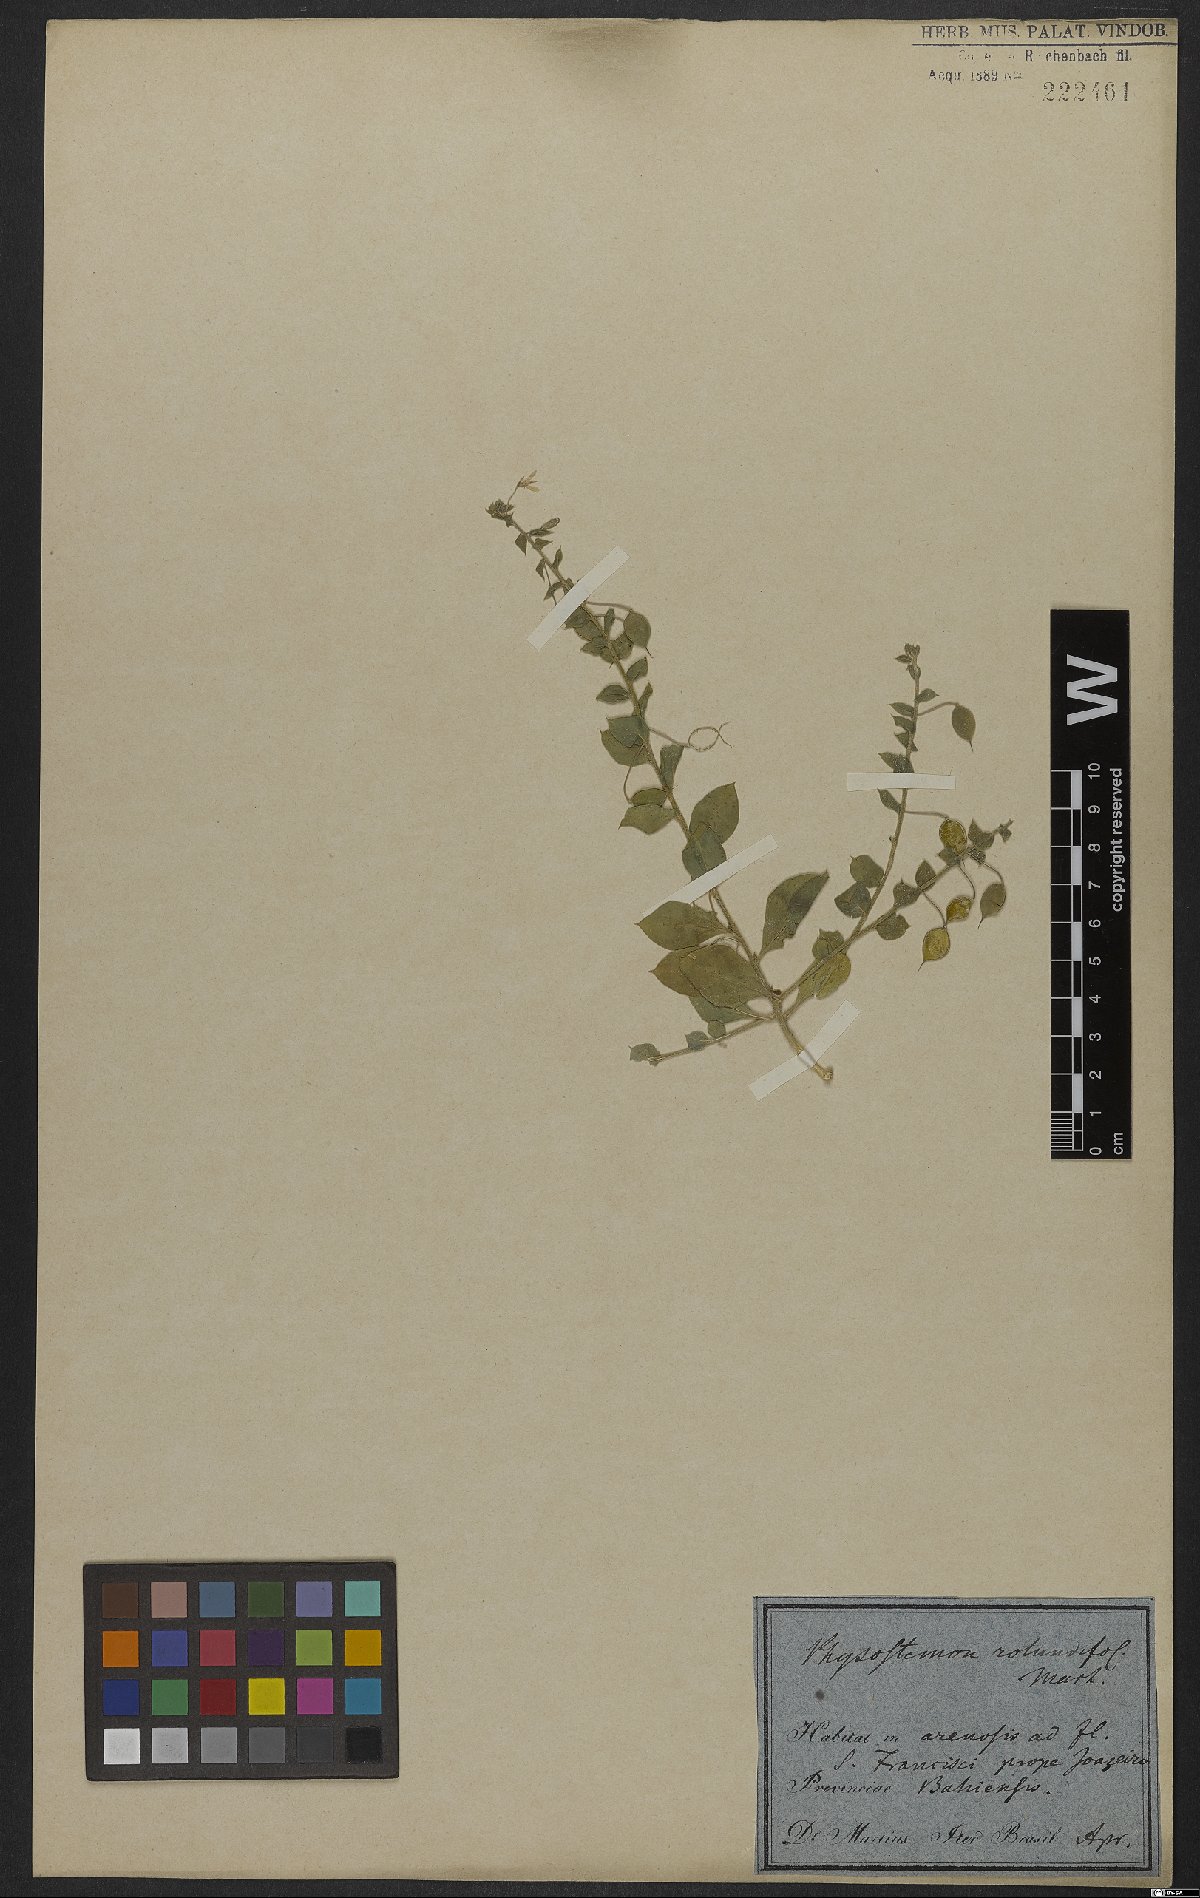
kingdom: Plantae
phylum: Tracheophyta
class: Magnoliopsida
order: Brassicales
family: Cleomaceae
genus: Physostemon
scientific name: Physostemon rotundifolius
